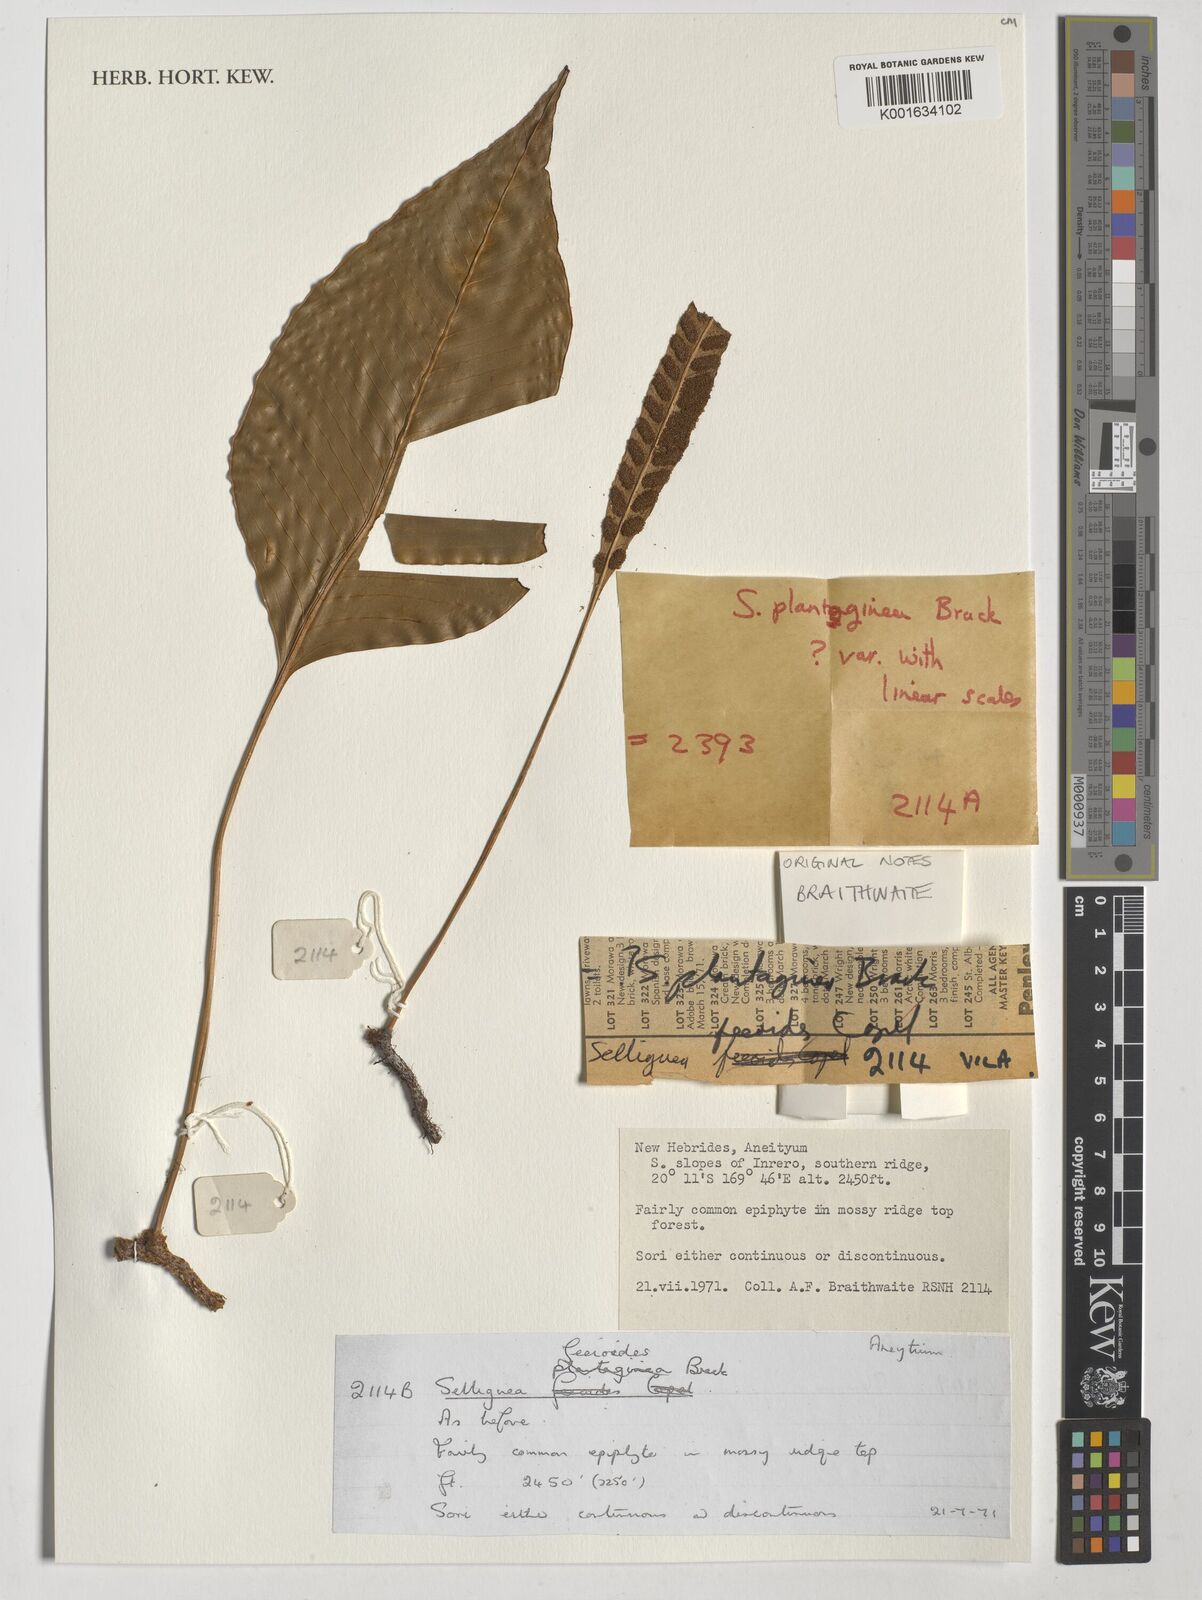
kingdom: Plantae
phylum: Tracheophyta
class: Polypodiopsida
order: Polypodiales
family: Polypodiaceae
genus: Selliguea
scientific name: Selliguea feeioides
